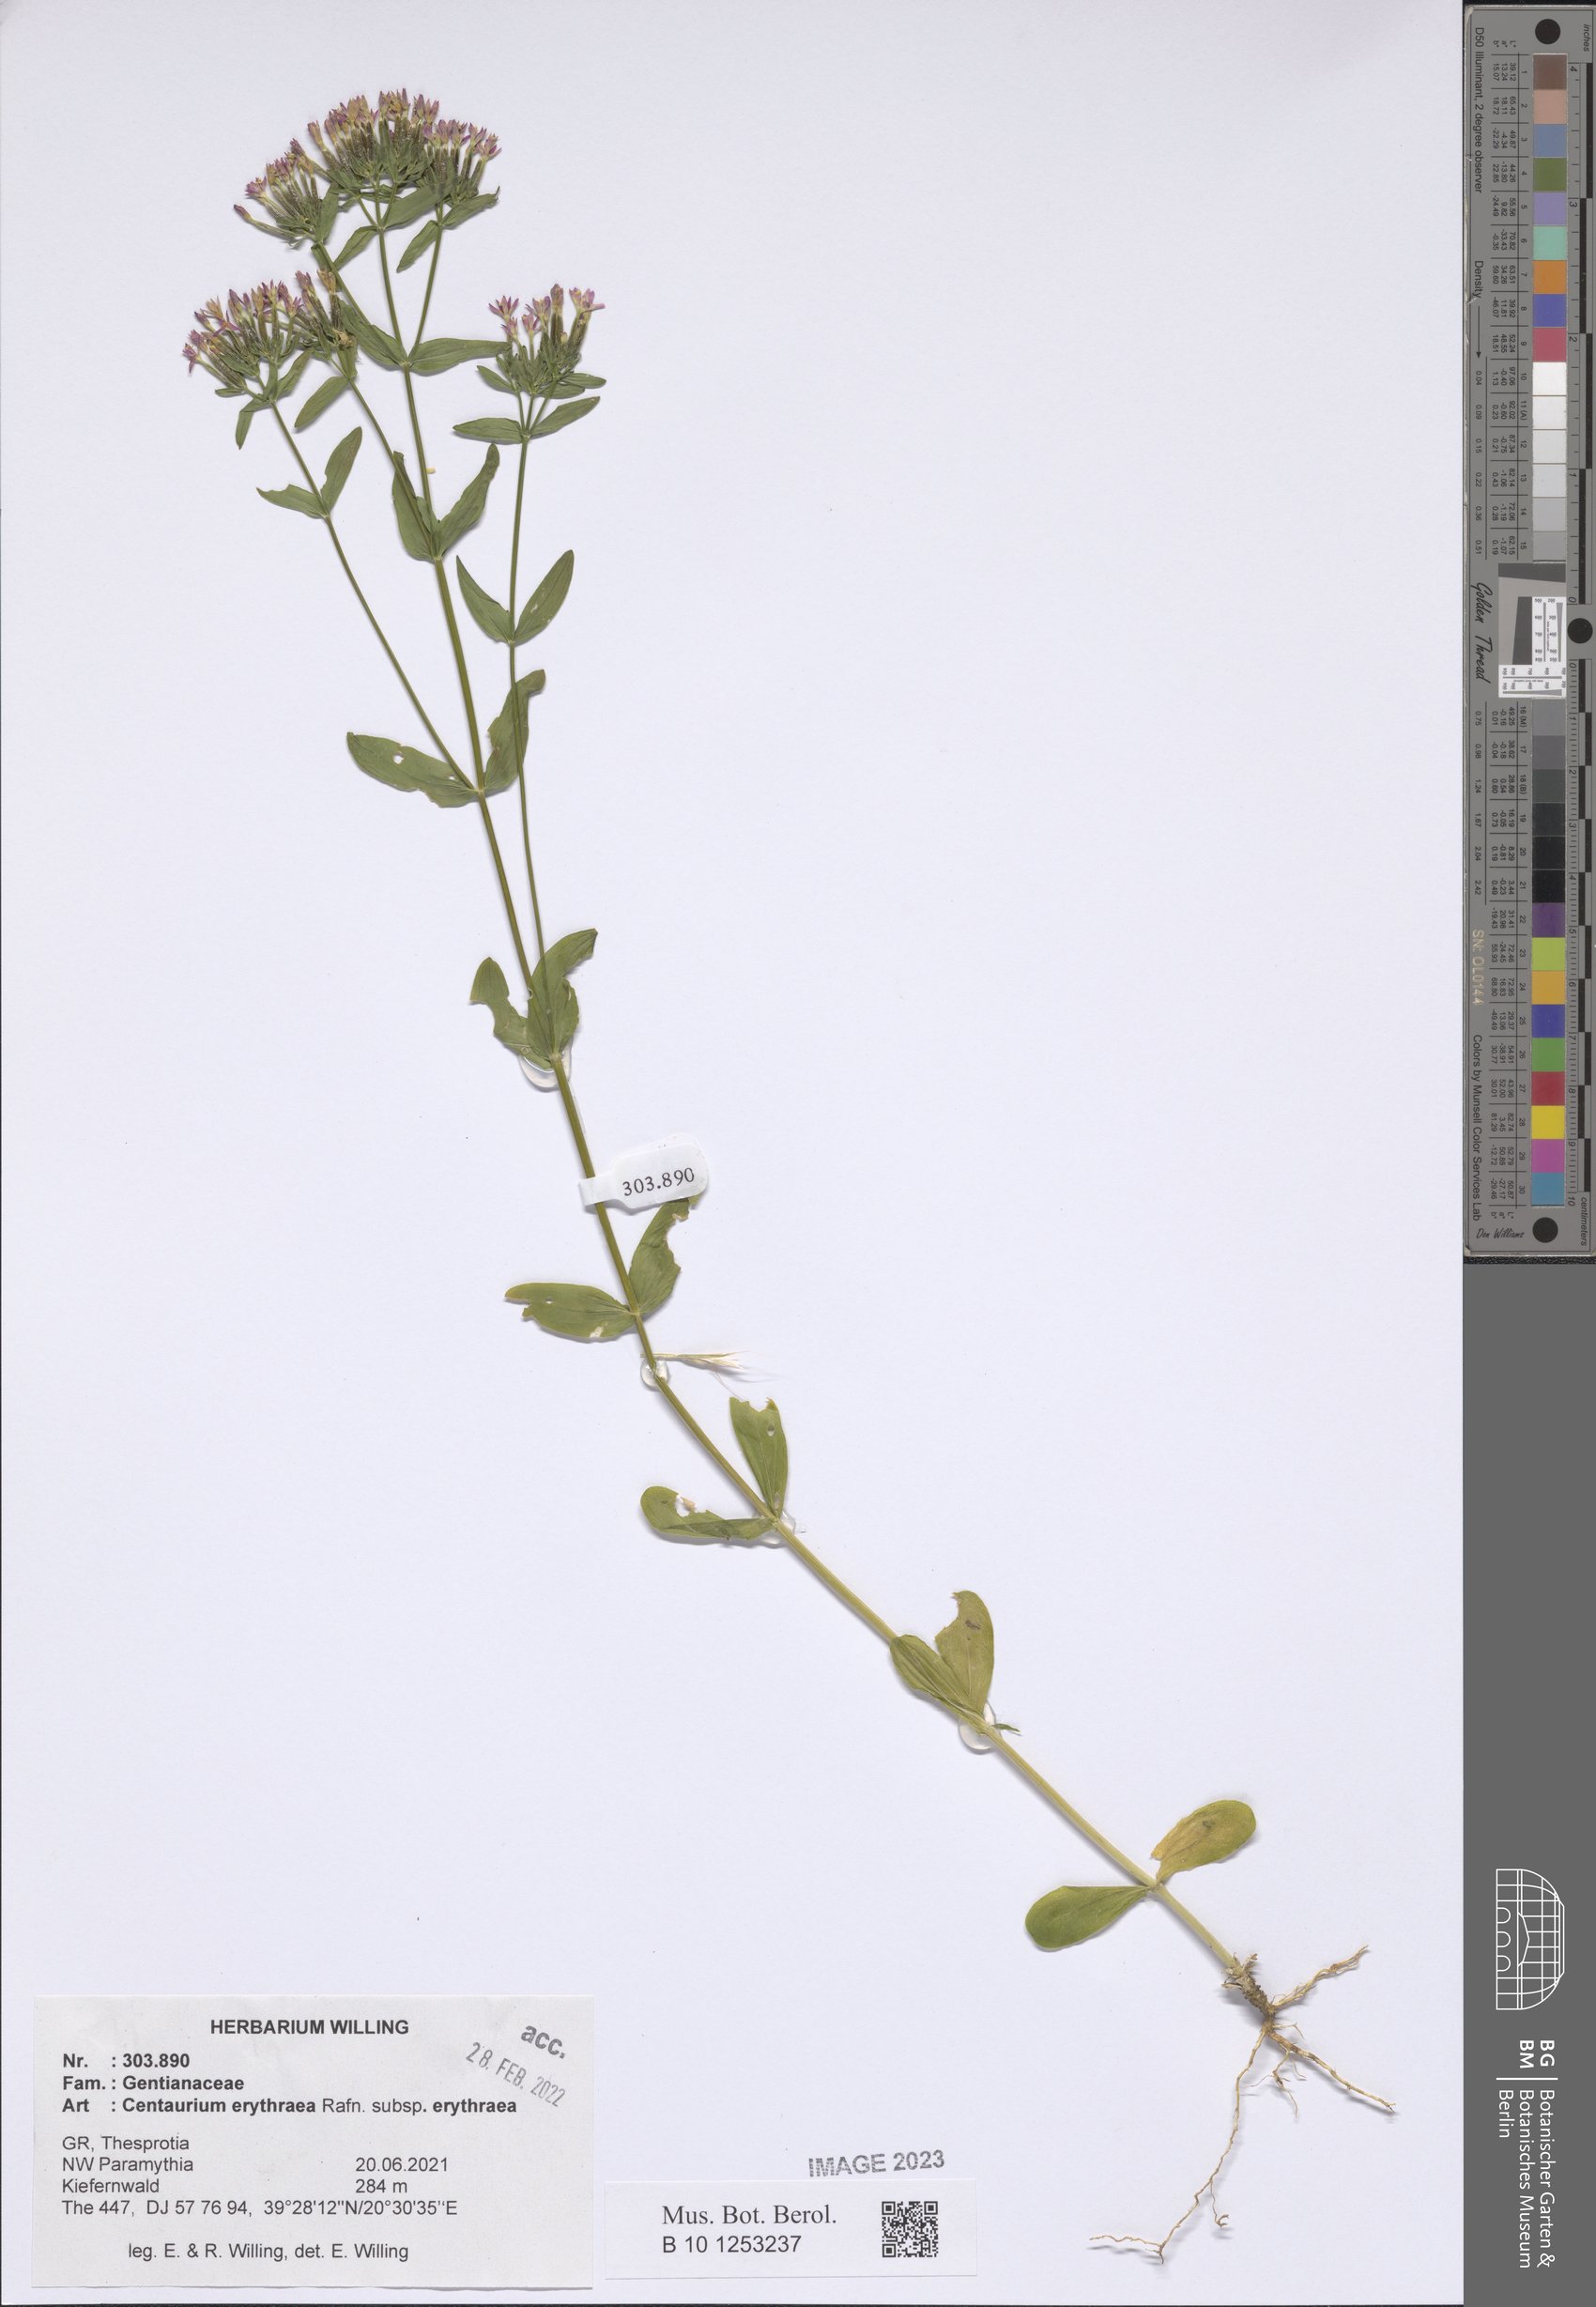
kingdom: Plantae
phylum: Tracheophyta
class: Magnoliopsida
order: Gentianales
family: Gentianaceae
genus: Centaurium
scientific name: Centaurium erythraea
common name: Common centaury
